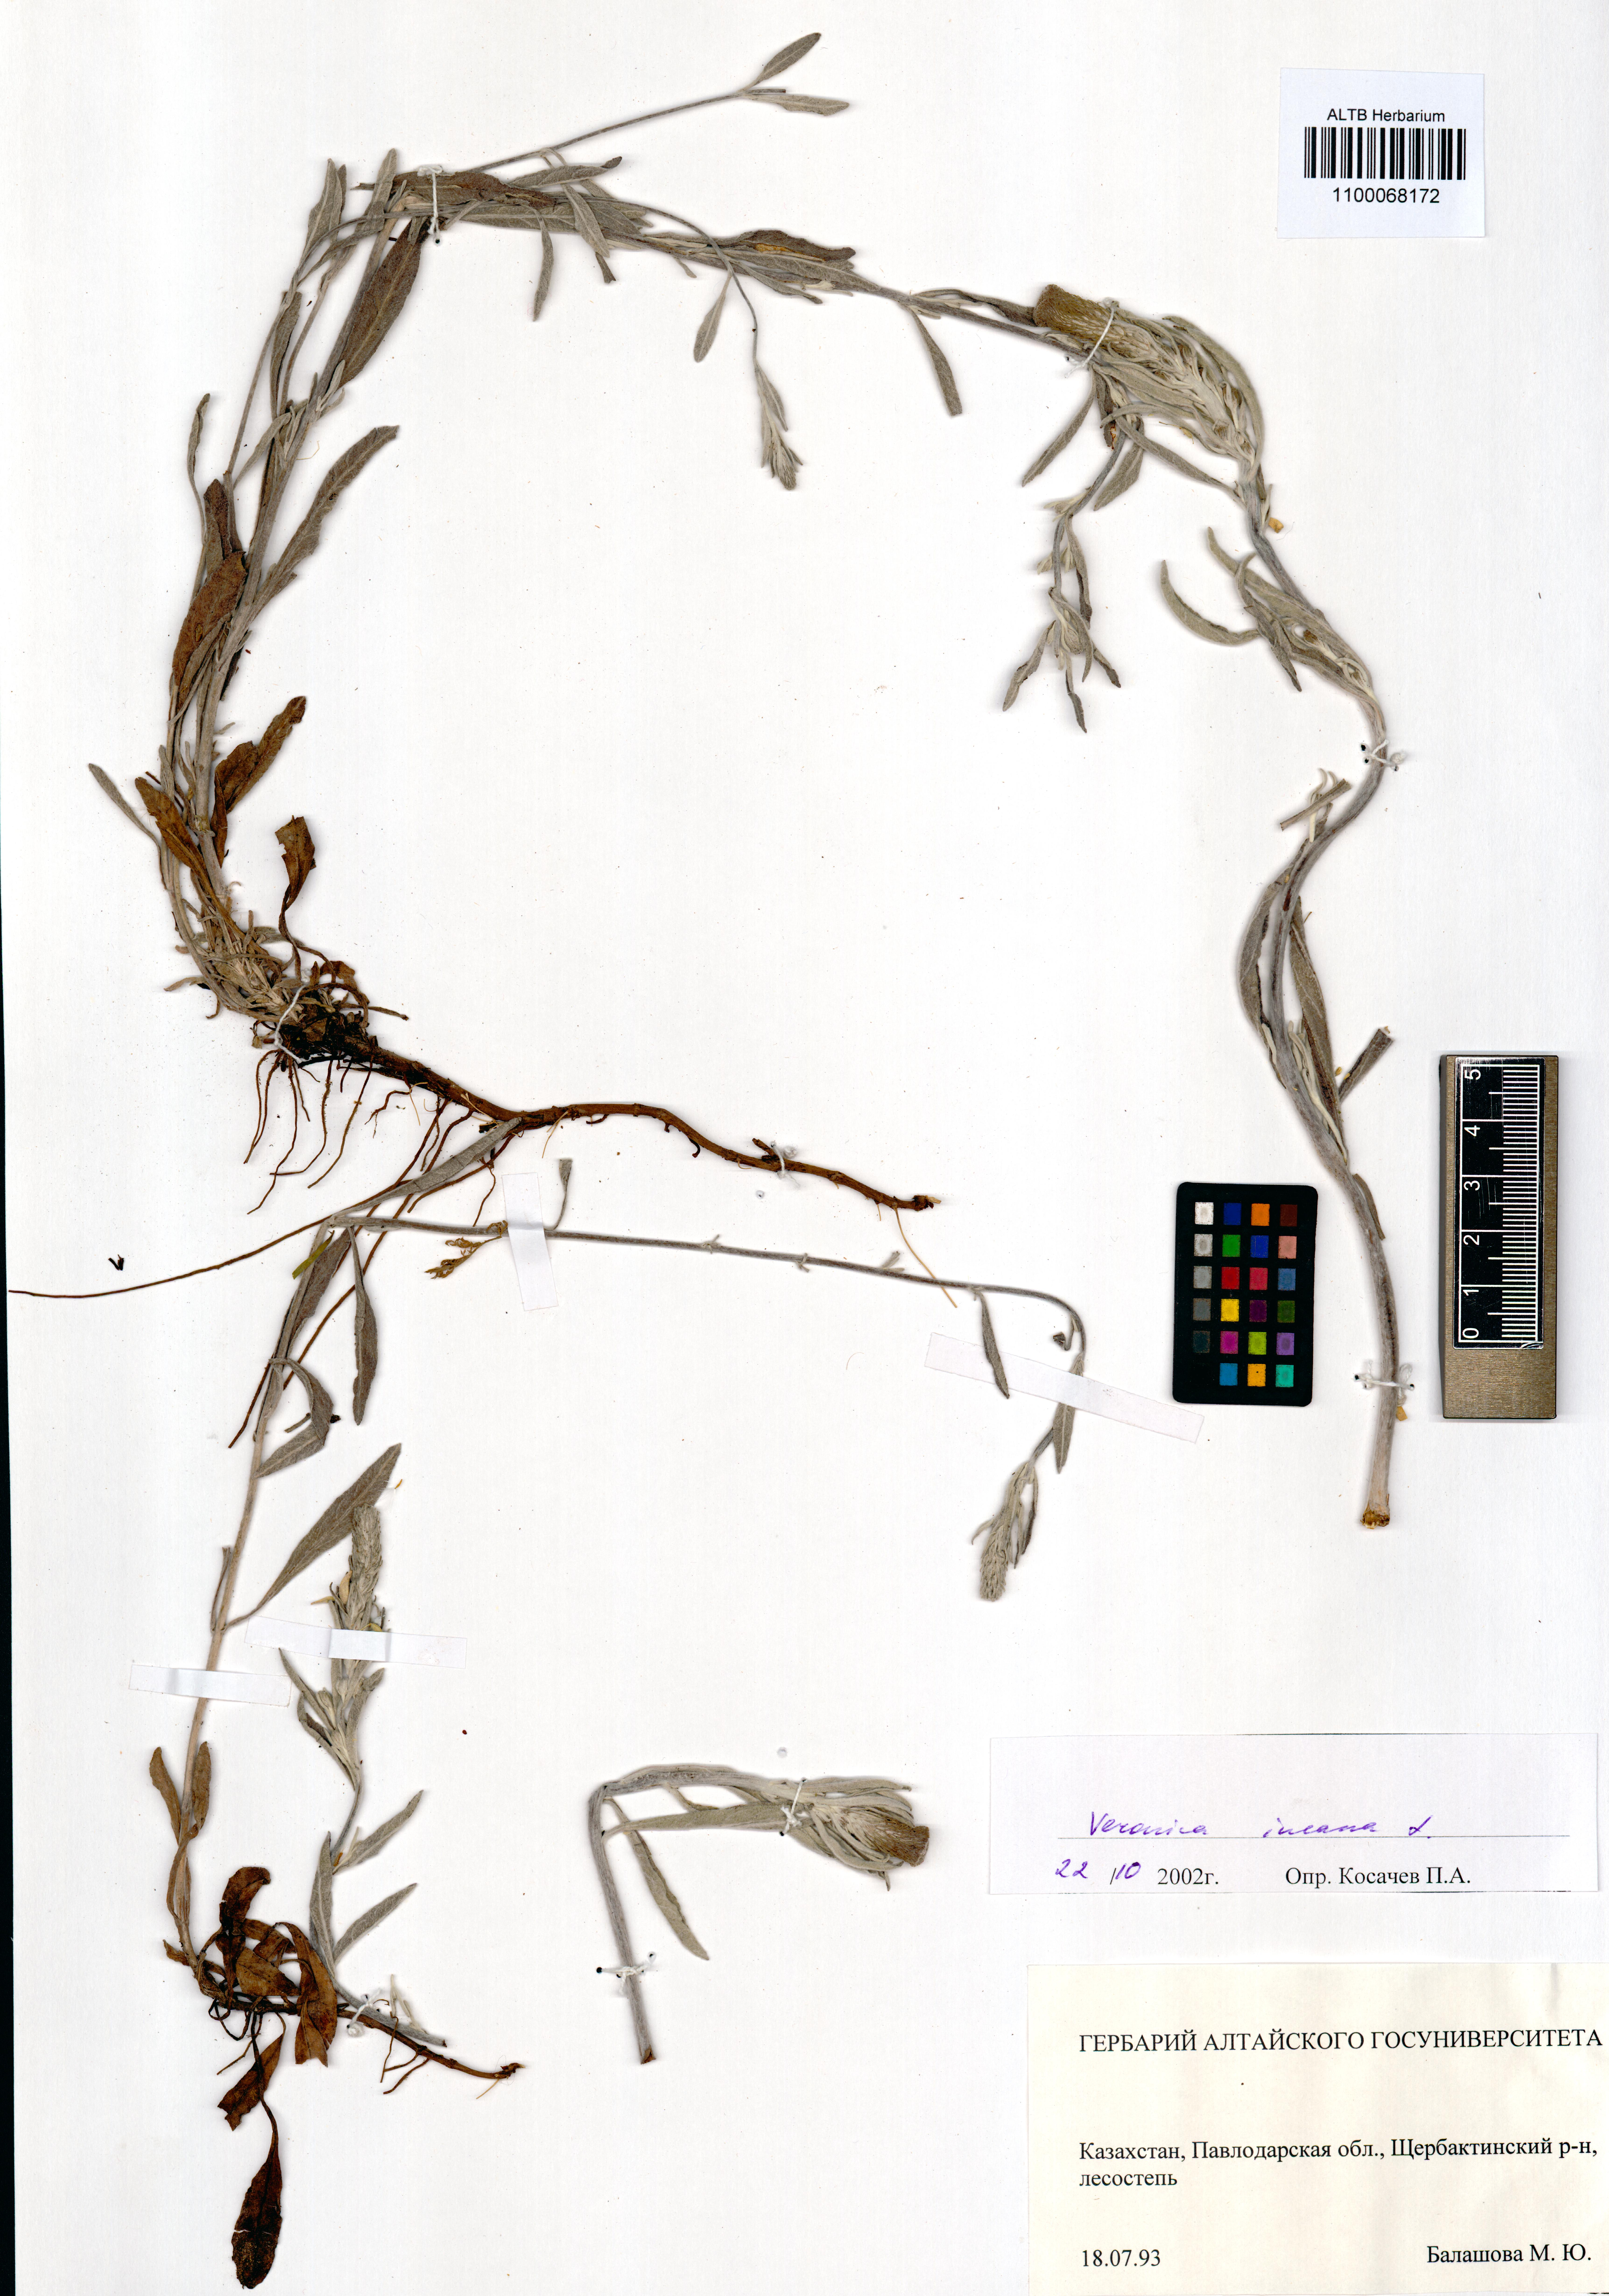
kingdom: Plantae
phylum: Tracheophyta
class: Magnoliopsida
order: Lamiales
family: Plantaginaceae
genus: Veronica
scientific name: Veronica incana
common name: Silver speedwell
